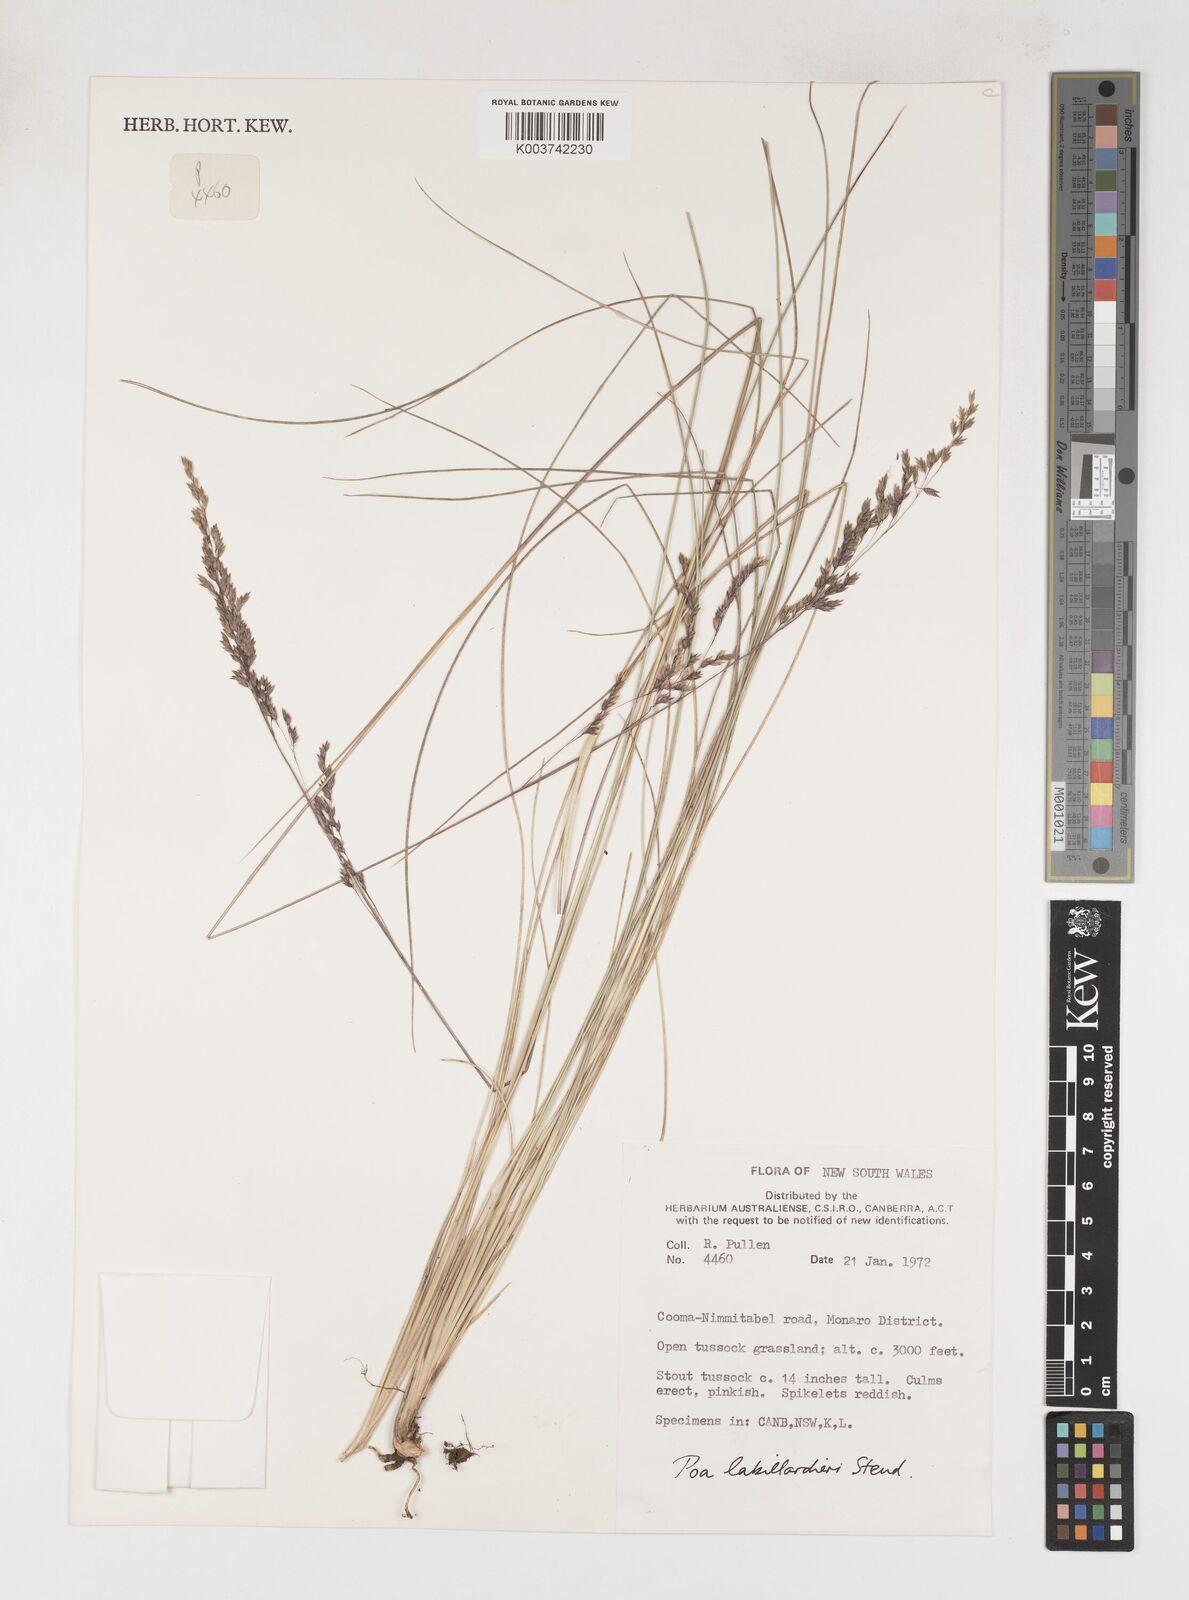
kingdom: Plantae
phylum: Tracheophyta
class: Liliopsida
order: Poales
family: Poaceae
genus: Poa
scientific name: Poa labillardierei
